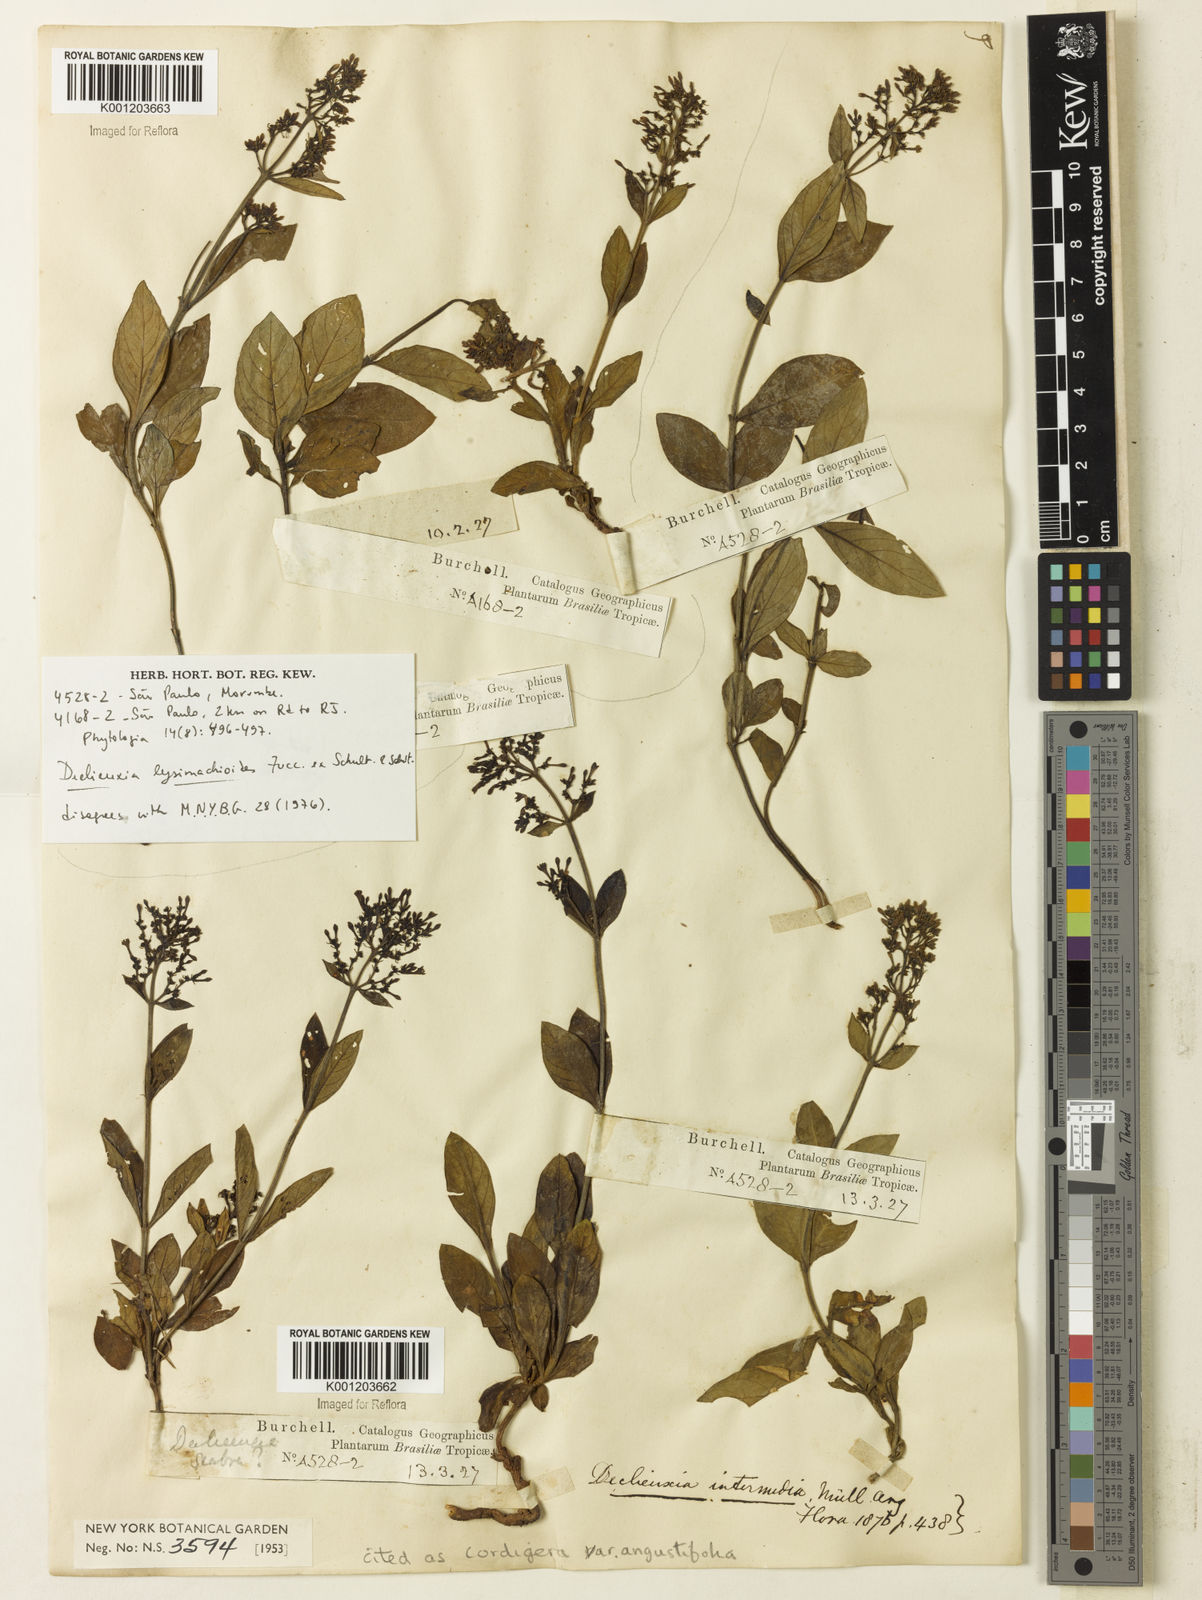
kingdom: Plantae
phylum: Tracheophyta
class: Magnoliopsida
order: Gentianales
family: Rubiaceae
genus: Declieuxia
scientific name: Declieuxia
